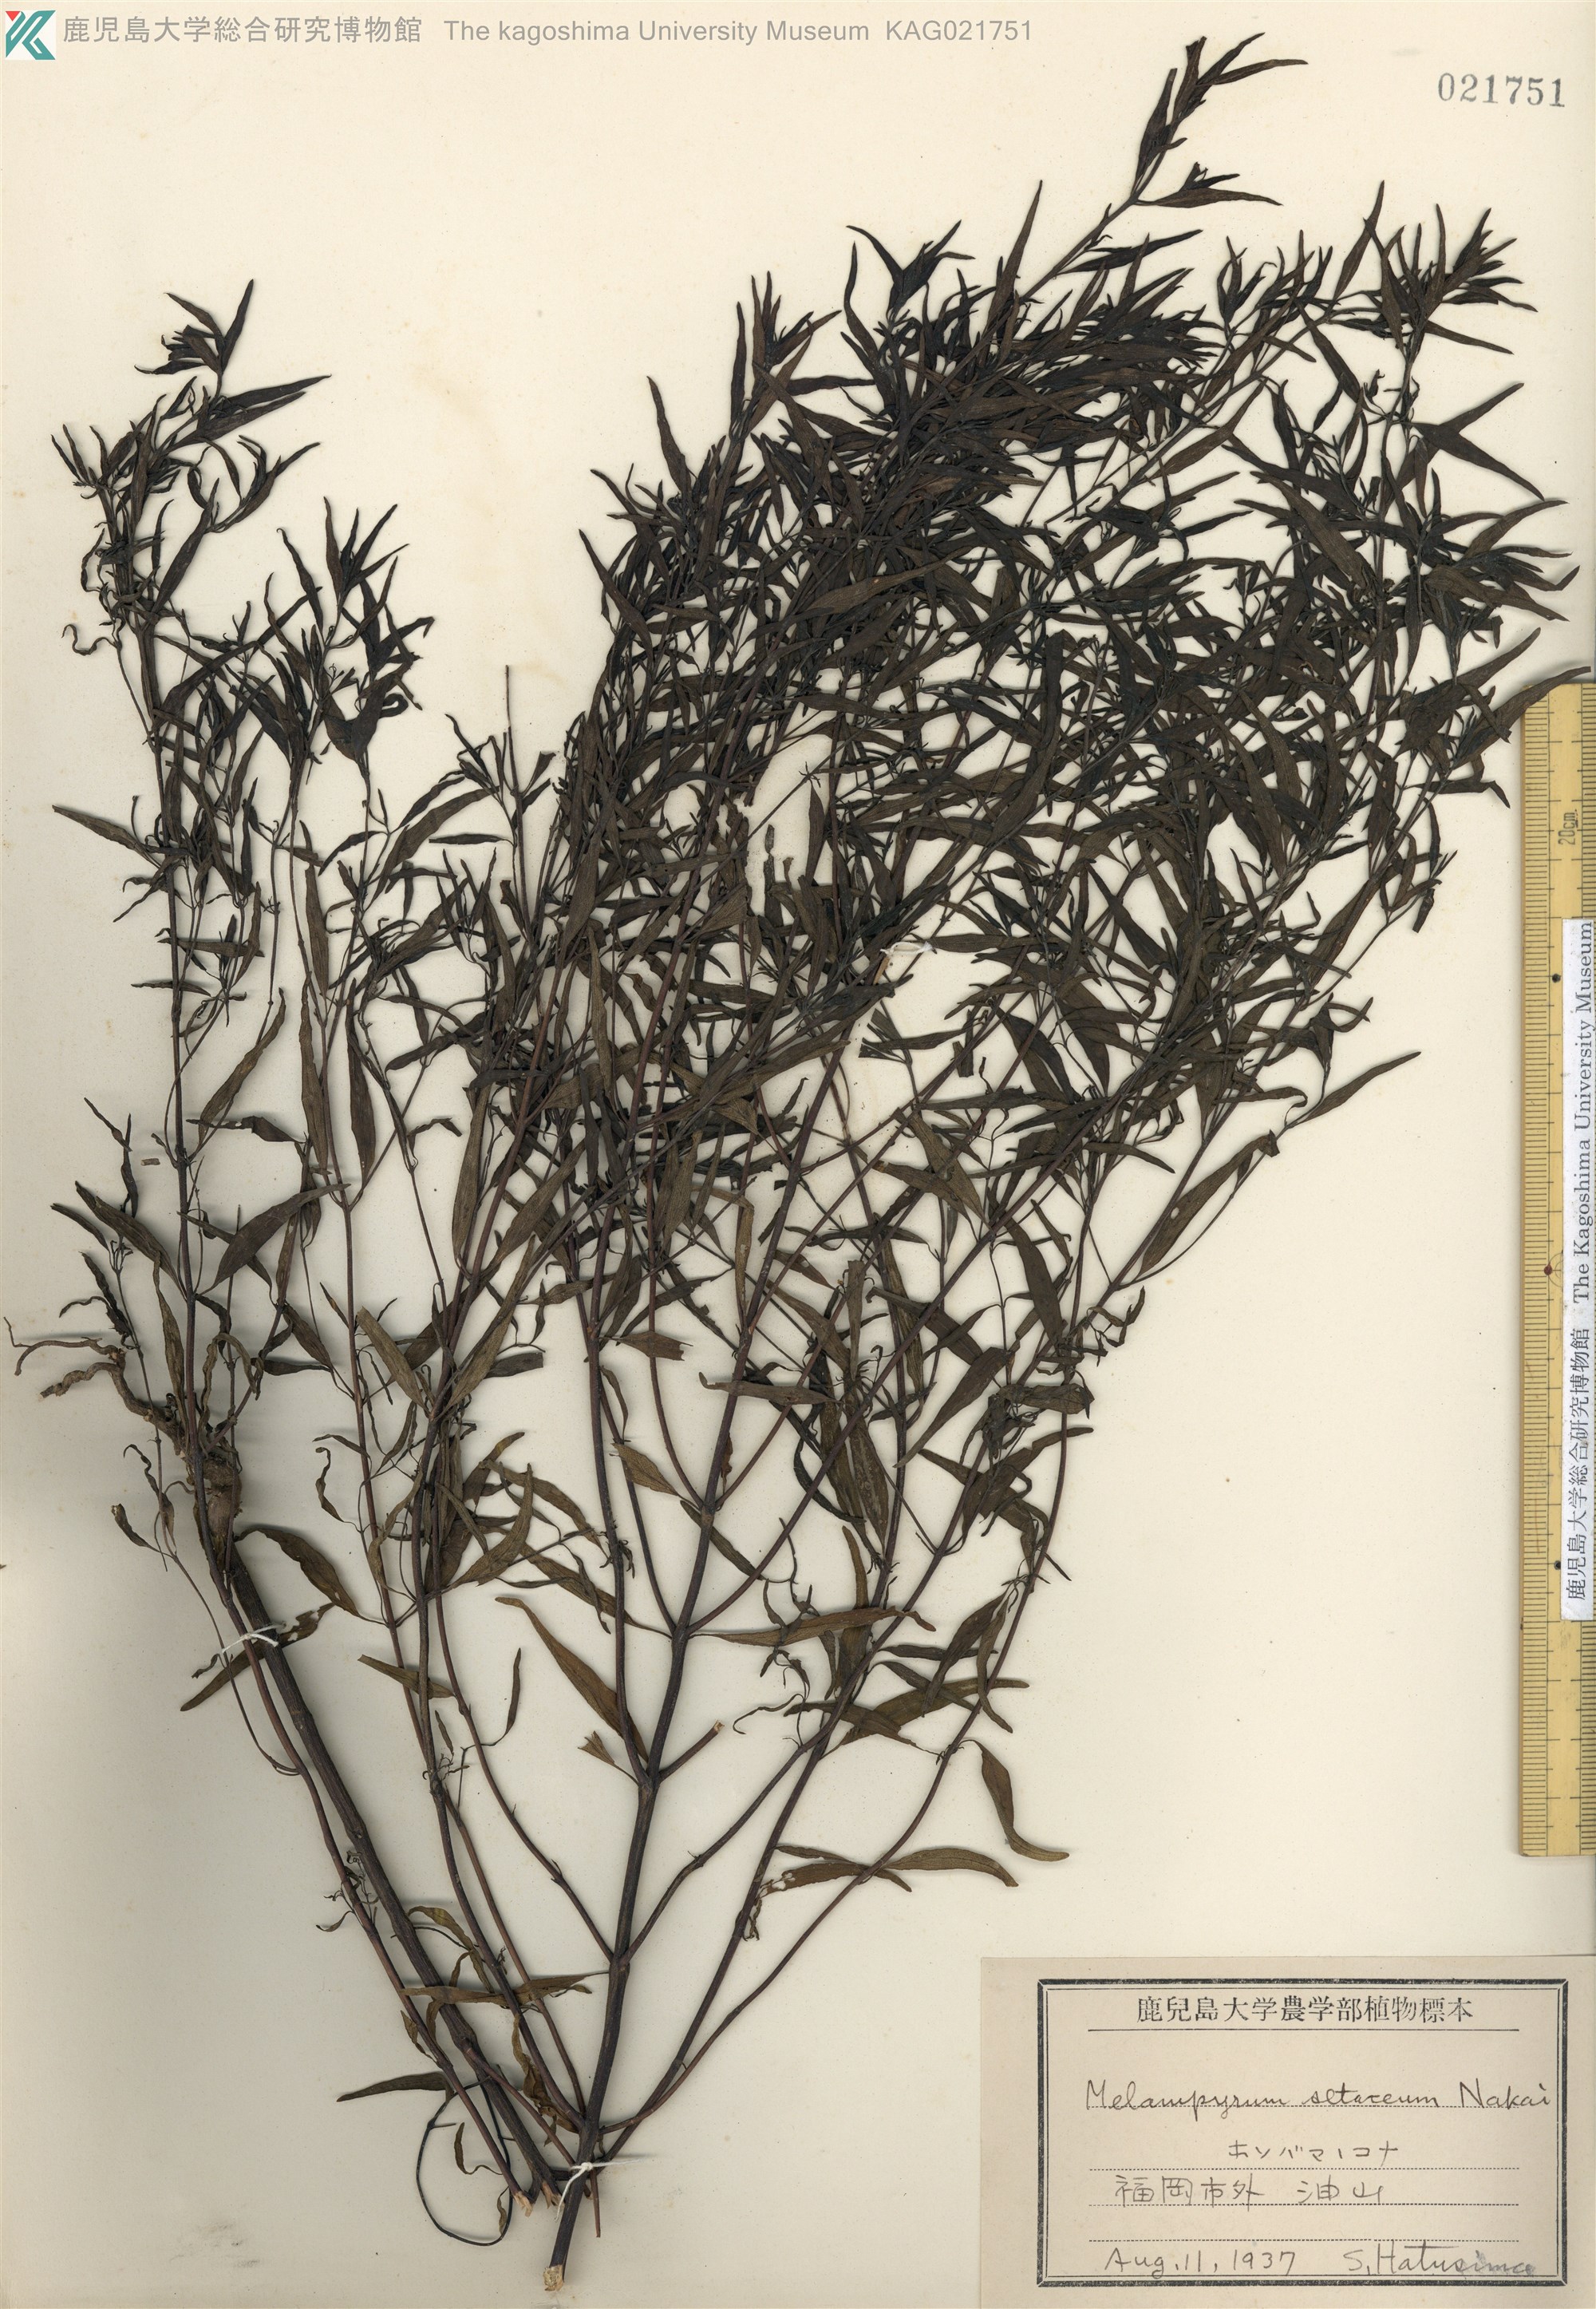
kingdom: Plantae
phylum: Tracheophyta
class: Magnoliopsida
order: Lamiales
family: Orobanchaceae
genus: Melampyrum
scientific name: Melampyrum setaceum
